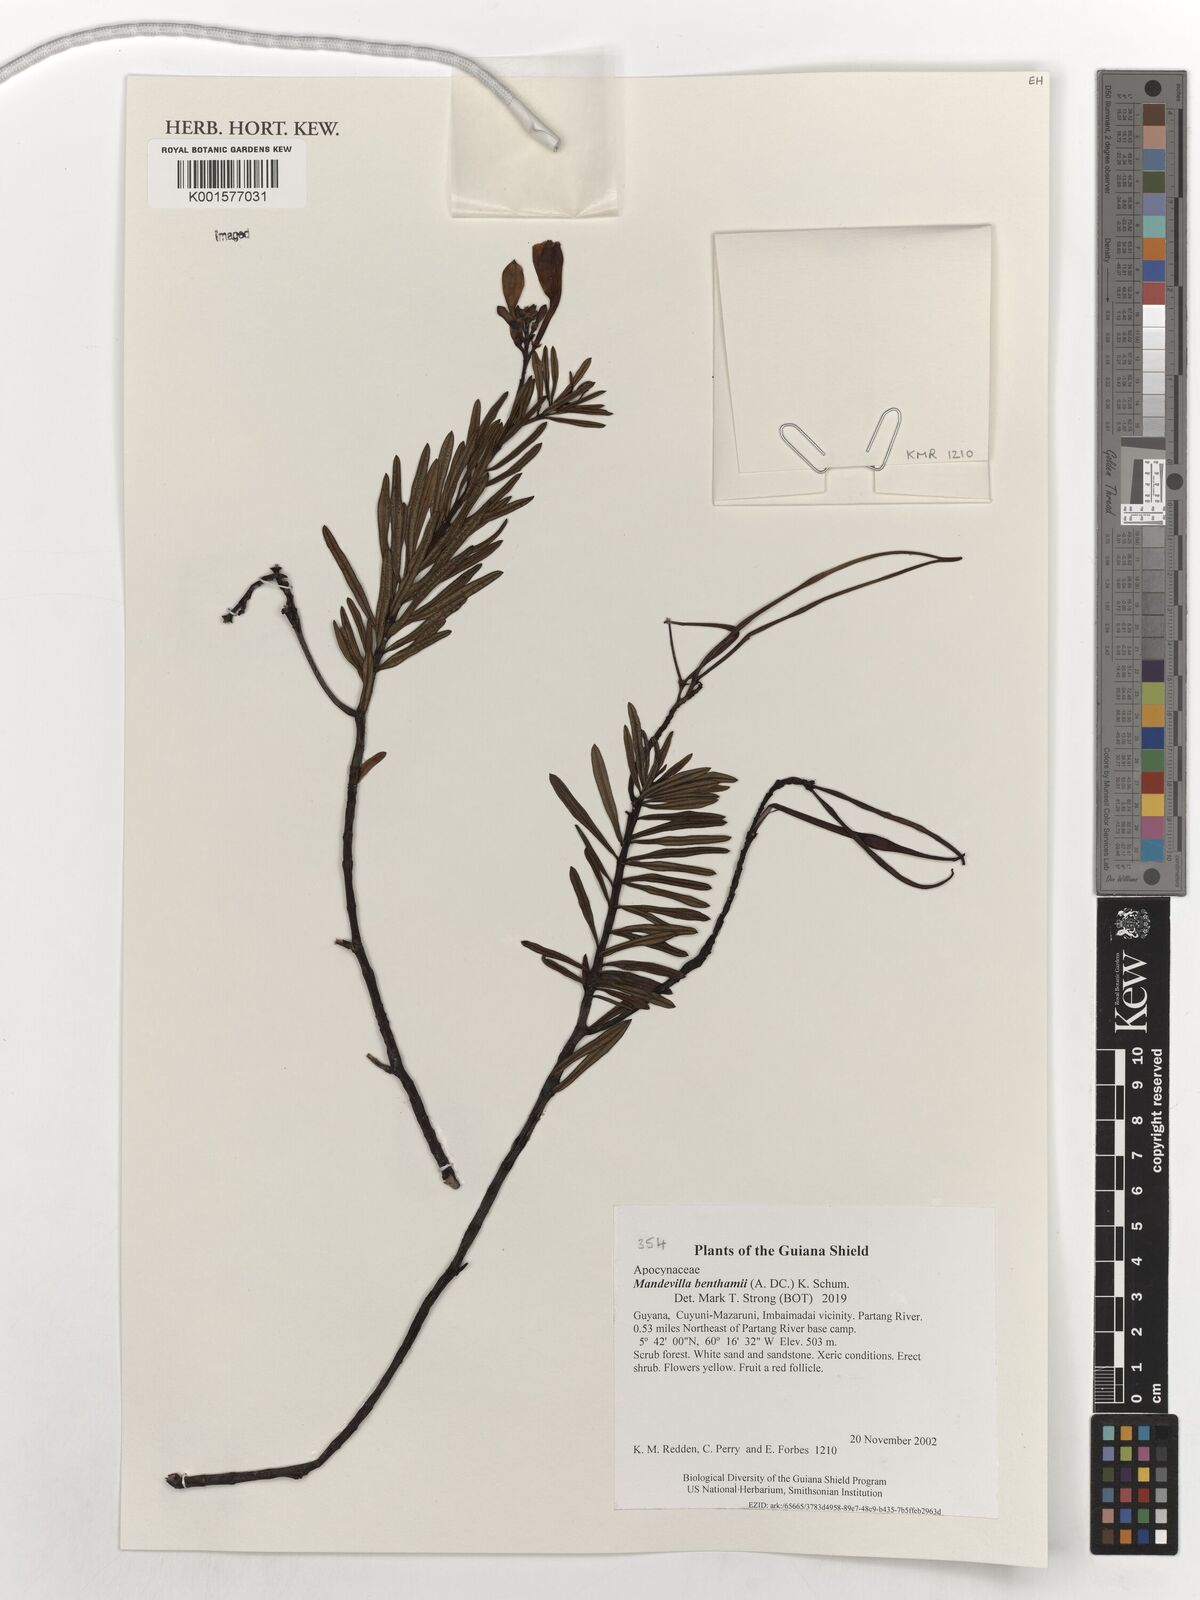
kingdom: Plantae
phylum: Tracheophyta
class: Magnoliopsida
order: Gentianales
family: Apocynaceae
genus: Mandevilla
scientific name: Mandevilla benthamii
